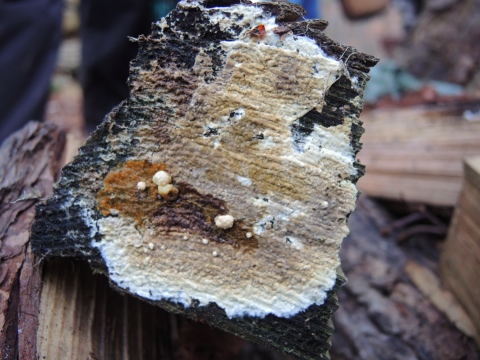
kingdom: Fungi
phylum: Basidiomycota
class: Agaricomycetes
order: Boletales
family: Coniophoraceae
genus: Coniophora
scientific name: Coniophora puteana
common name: gul tømmersvamp
